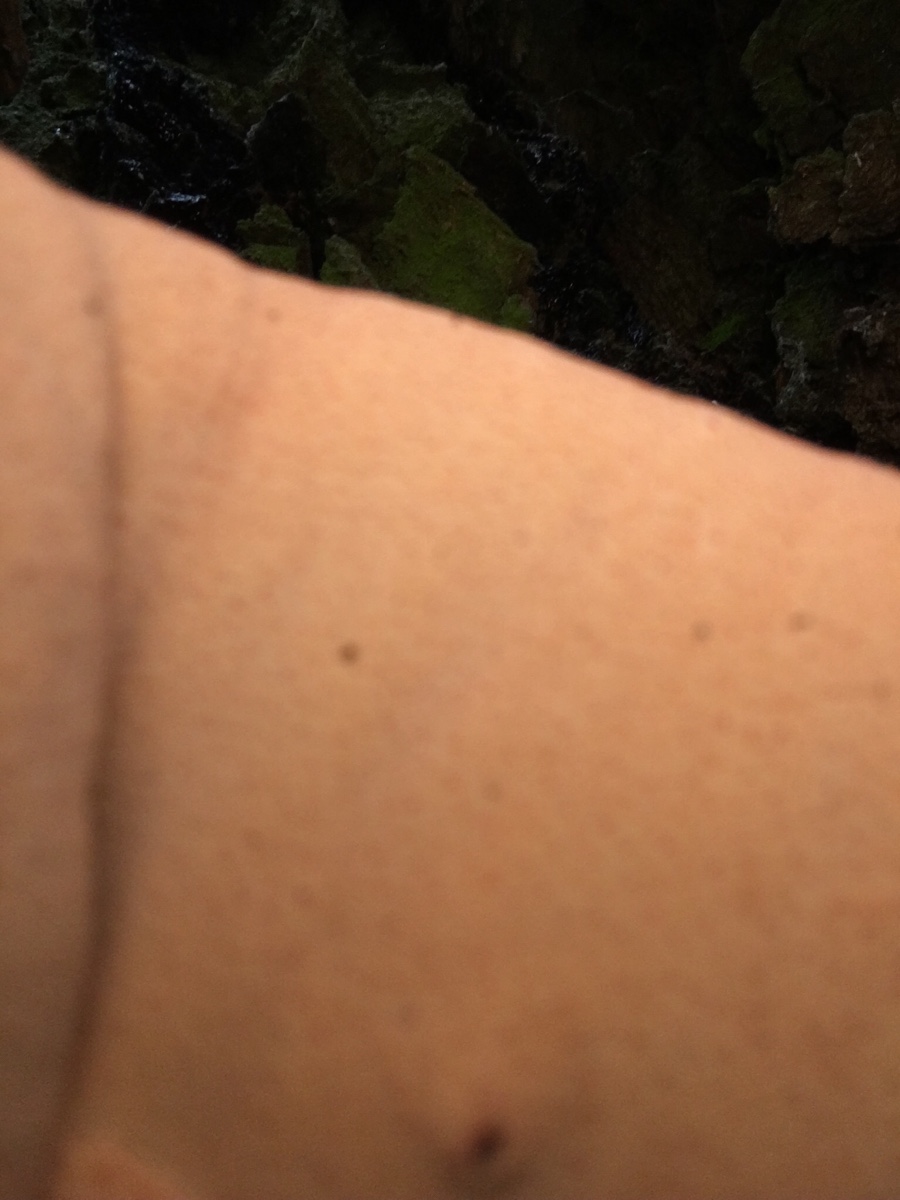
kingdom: Fungi
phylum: Basidiomycota
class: Agaricomycetes
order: Agaricales
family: Fistulinaceae
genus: Fistulina
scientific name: Fistulina hepatica
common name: oksetunge
